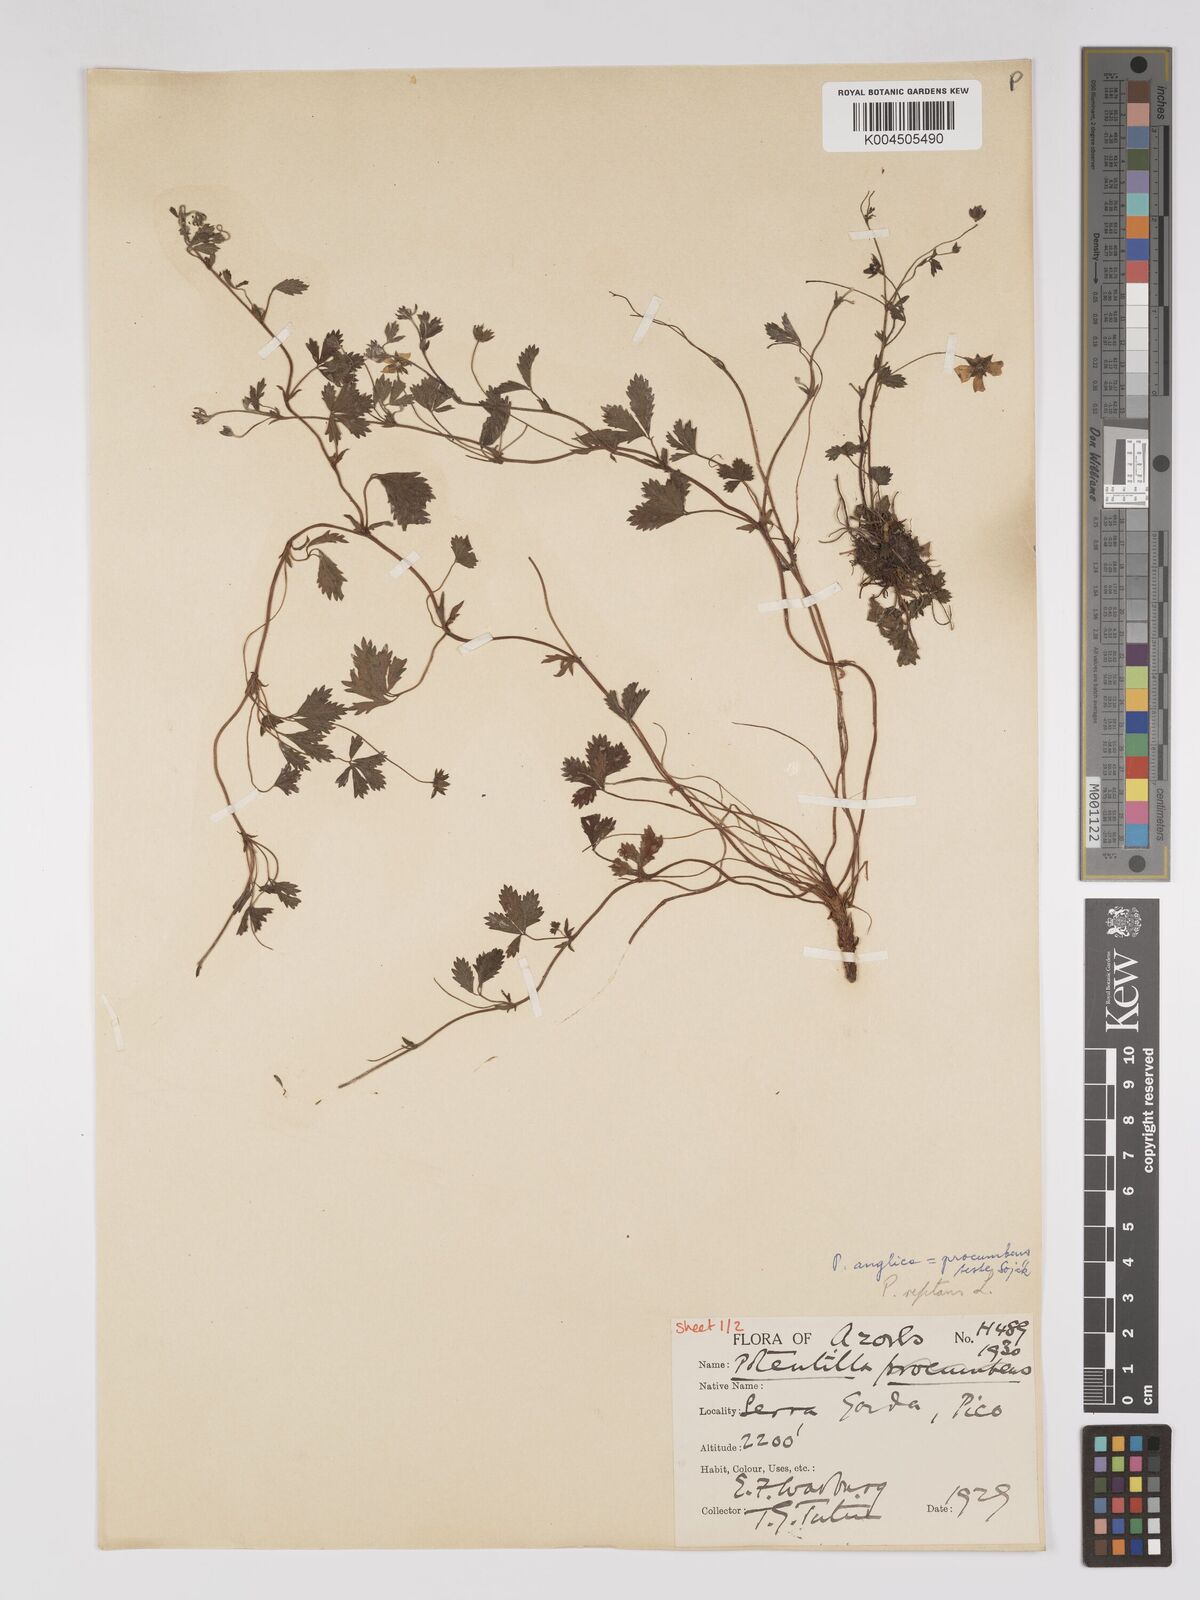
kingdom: Plantae
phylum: Tracheophyta
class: Magnoliopsida
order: Rosales
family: Rosaceae
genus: Potentilla
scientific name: Potentilla reptans
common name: Creeping cinquefoil
